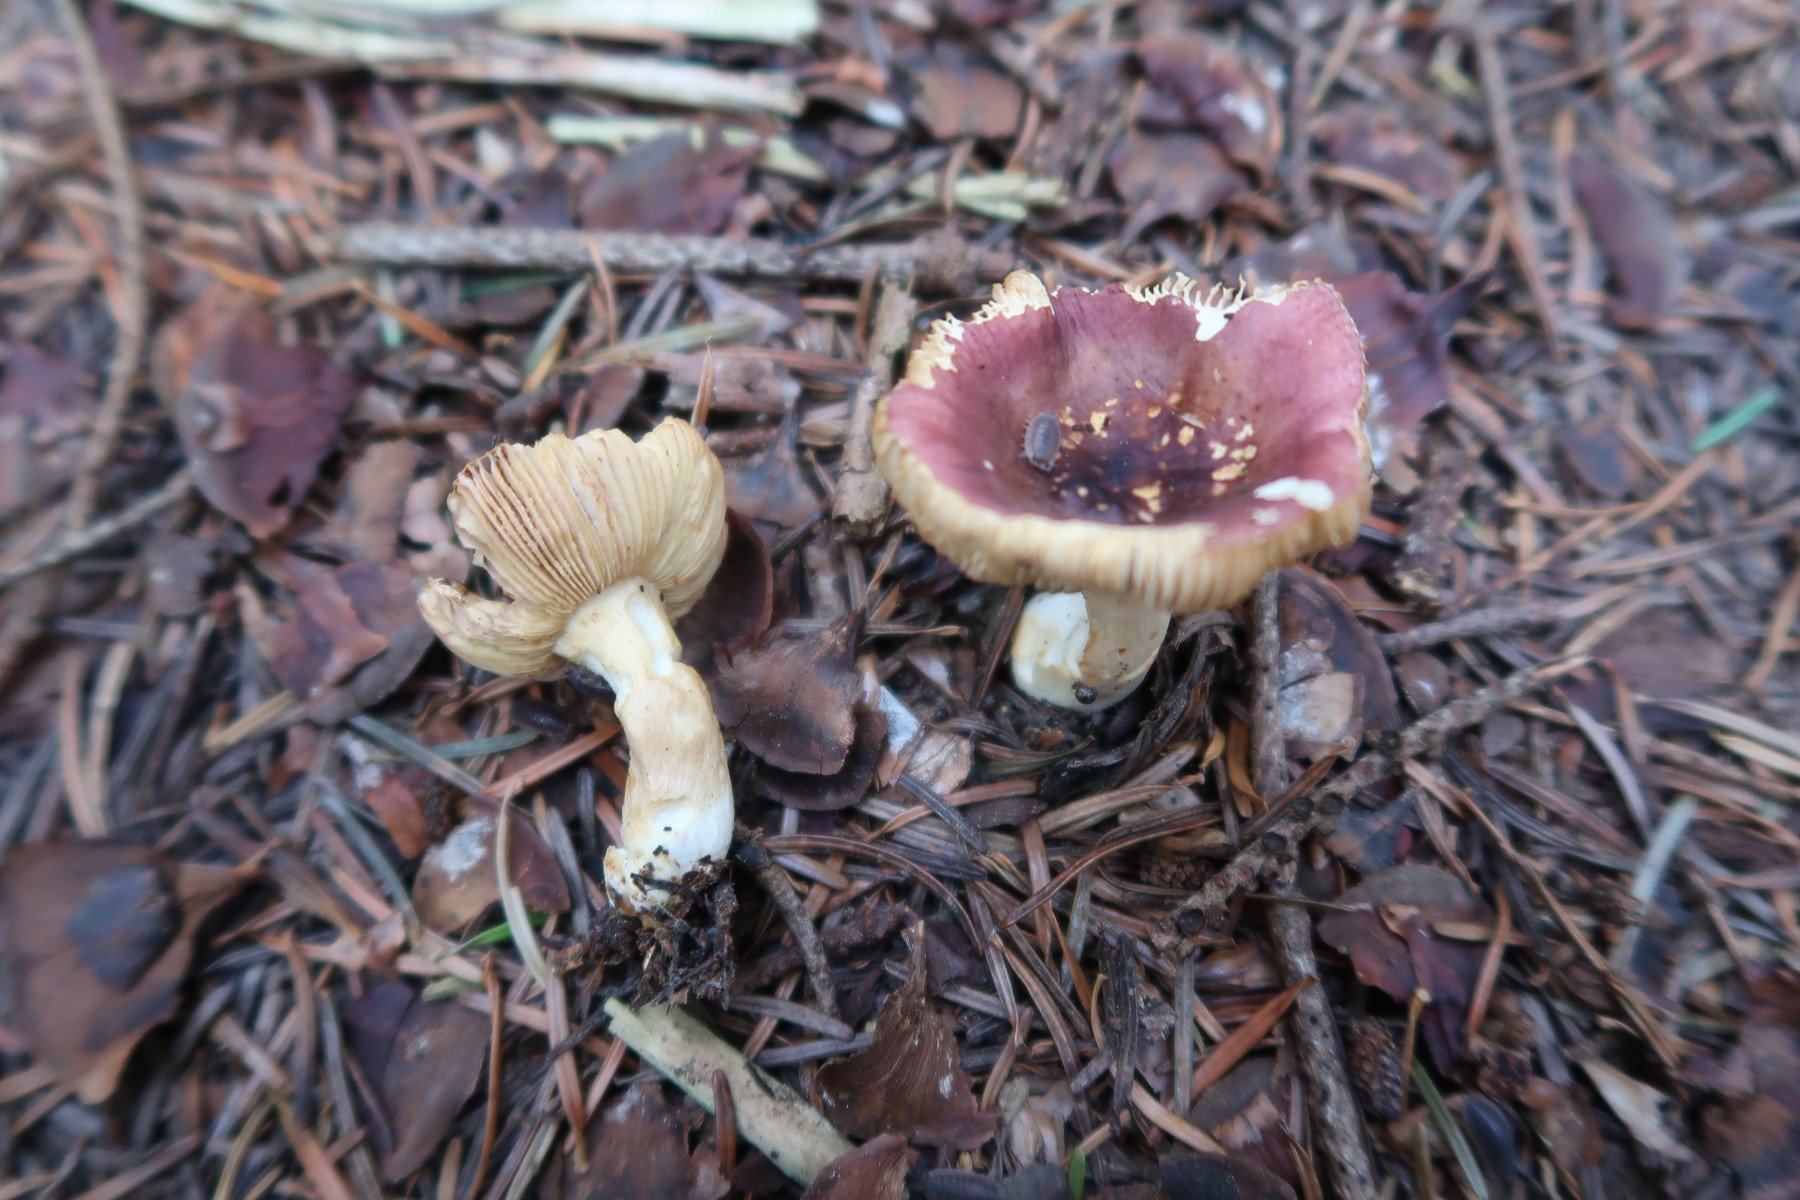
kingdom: Fungi
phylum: Basidiomycota
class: Agaricomycetes
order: Russulales
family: Russulaceae
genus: Russula
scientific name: Russula puellaris
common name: gulstokket skørhat
